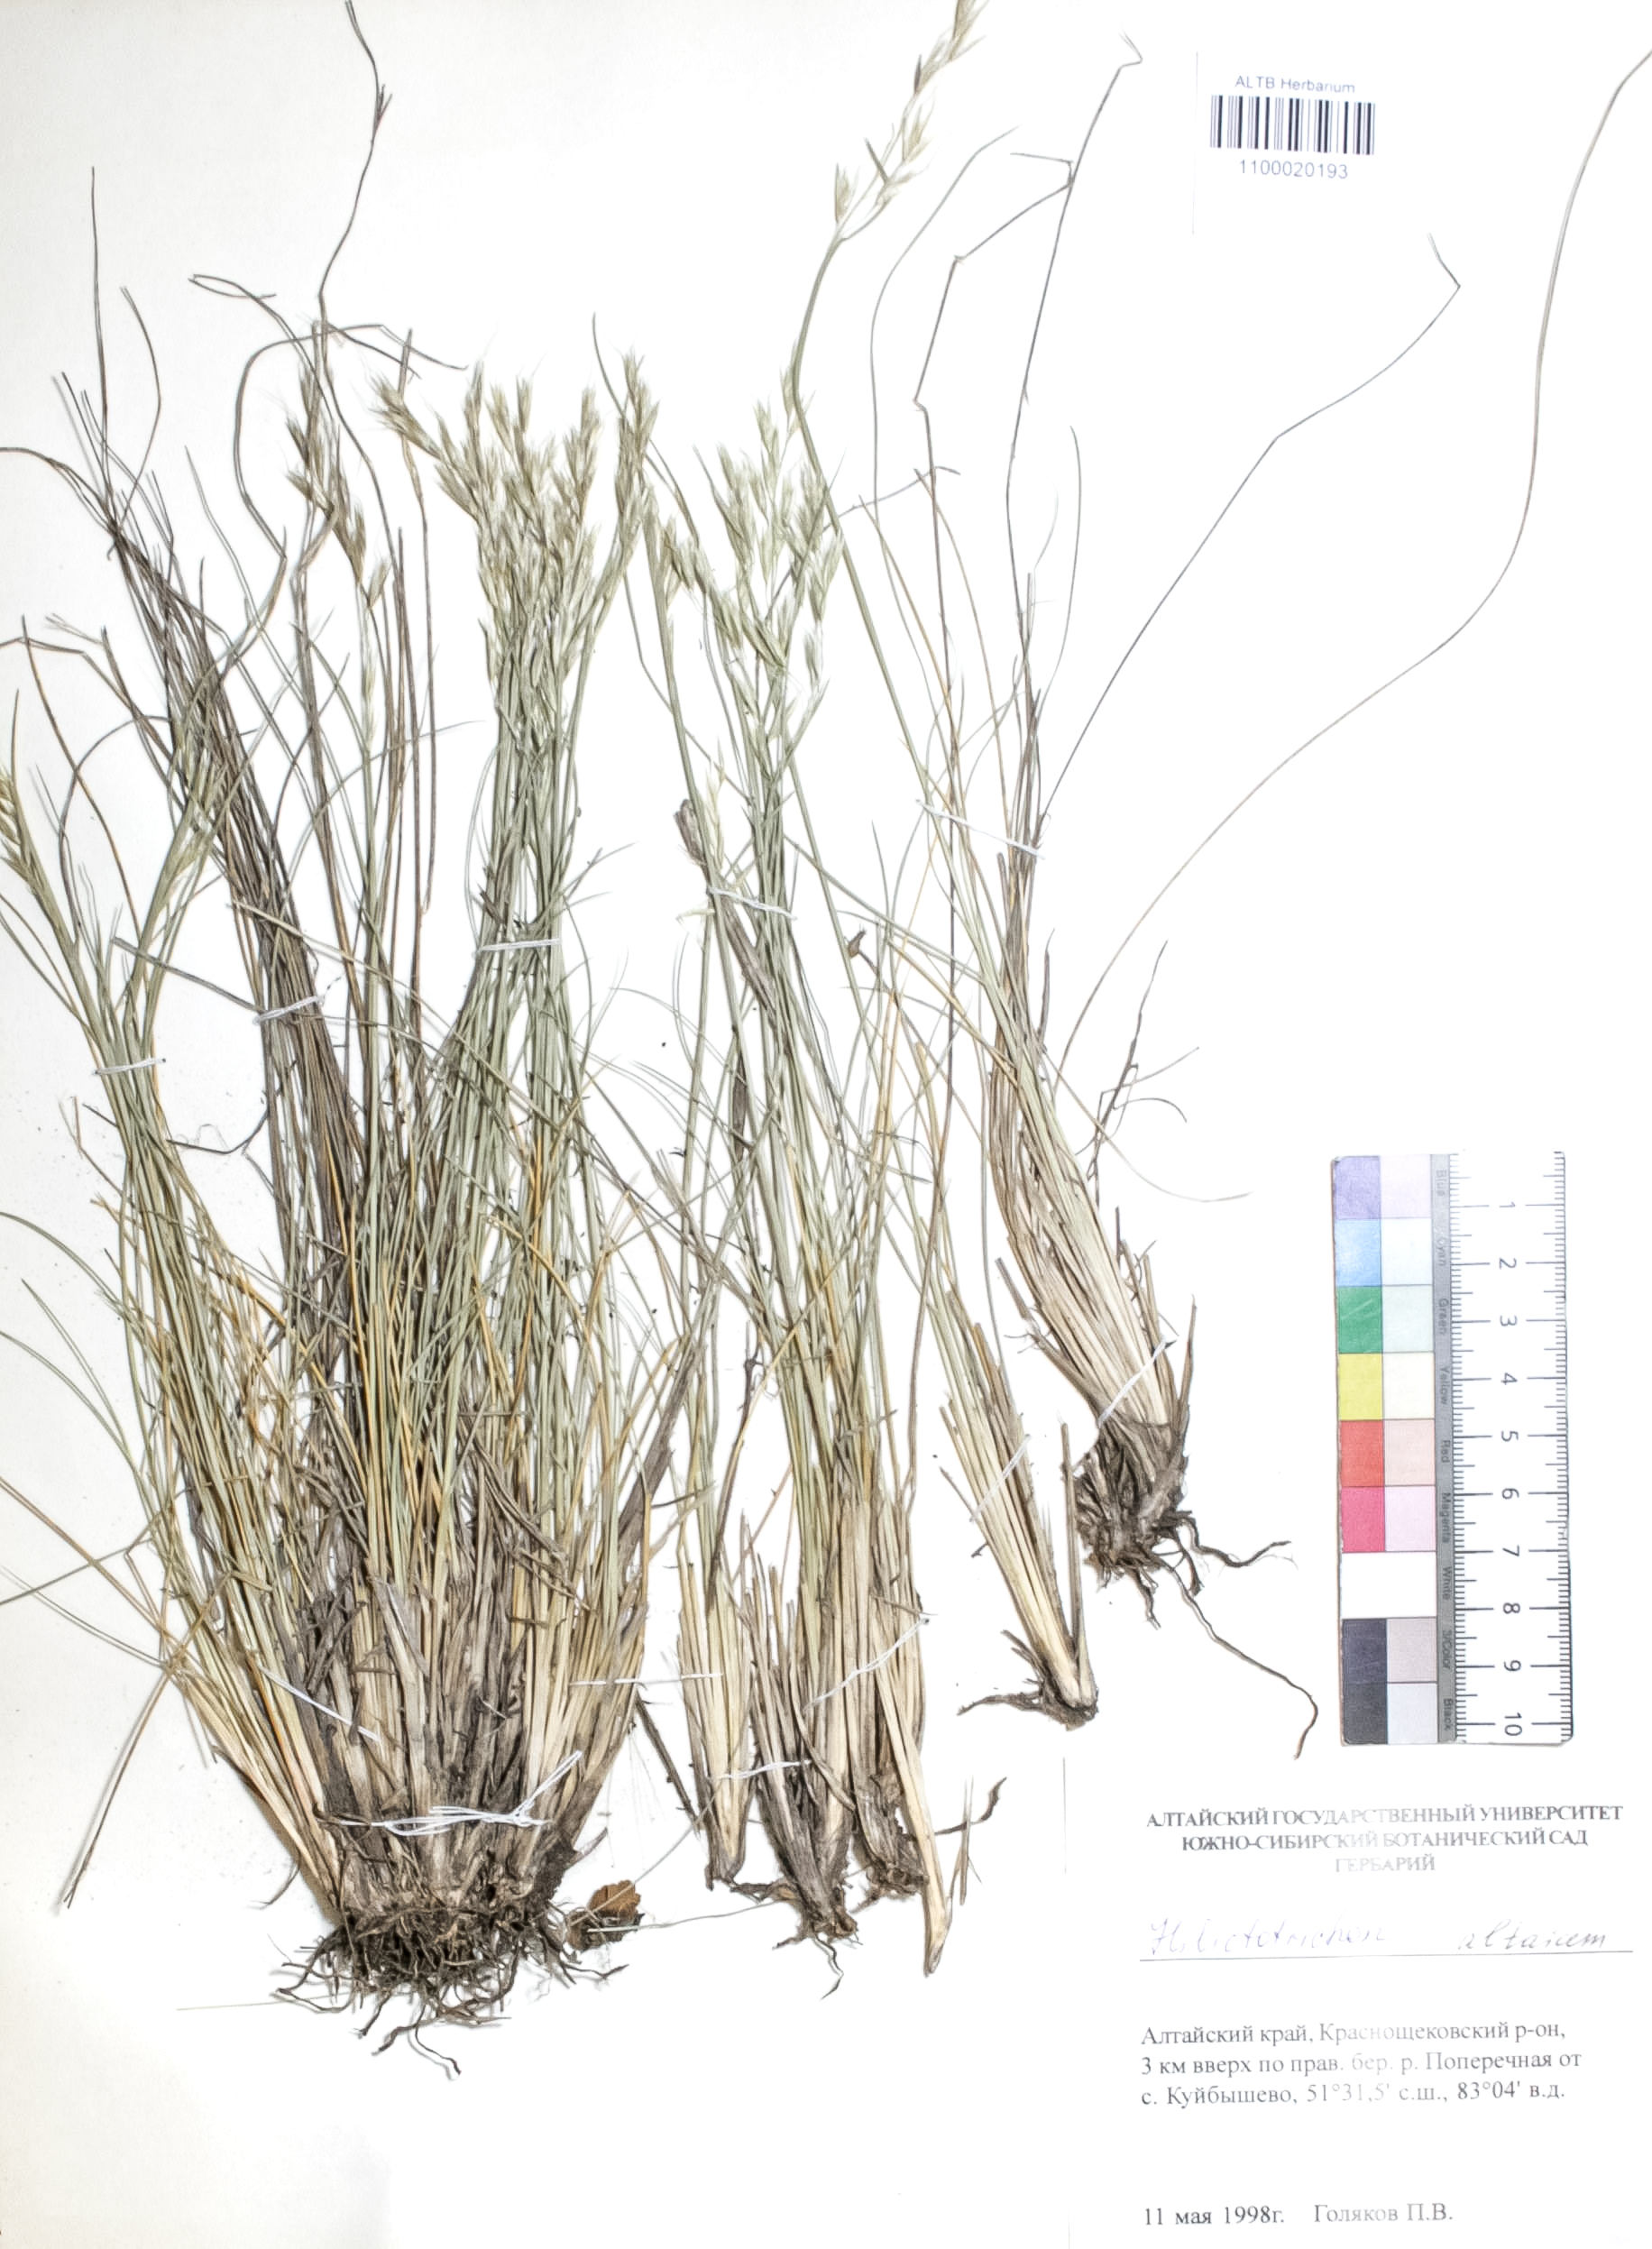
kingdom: Plantae
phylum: Tracheophyta
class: Liliopsida
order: Poales
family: Poaceae
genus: Helictotrichon
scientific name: Helictotrichon desertorum
